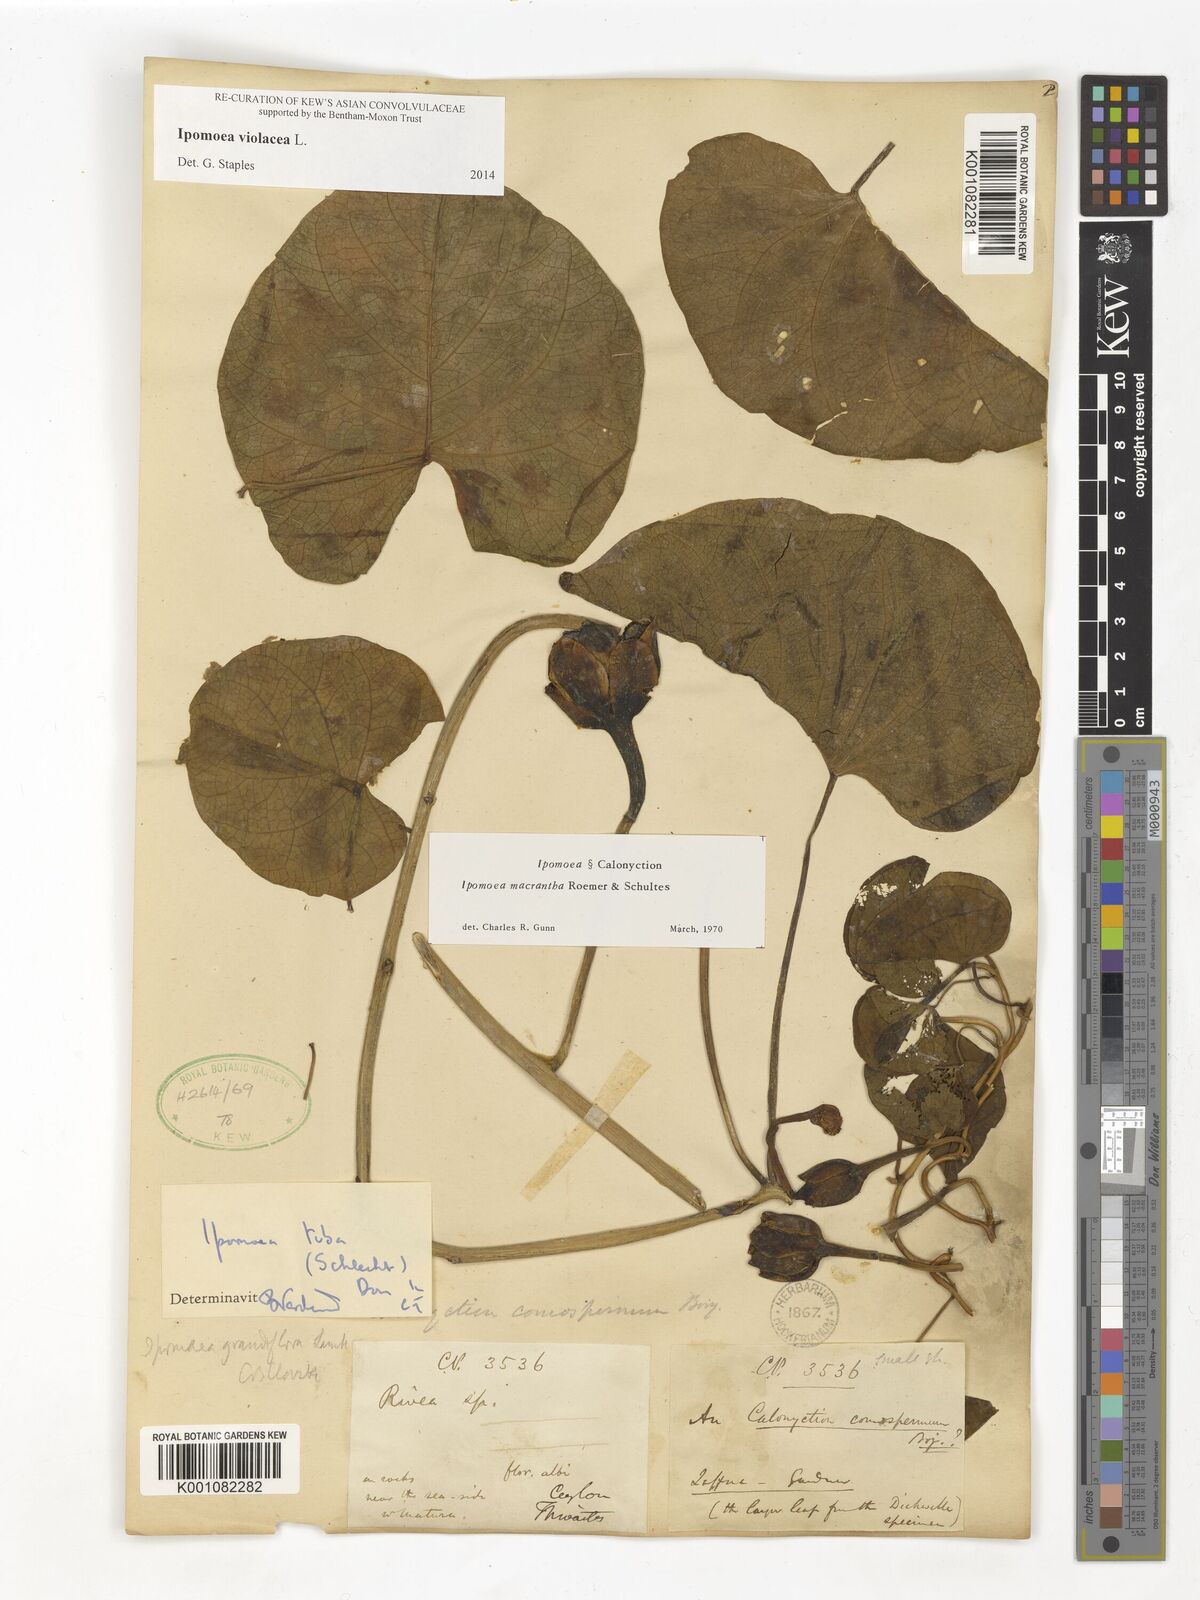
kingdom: Plantae
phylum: Tracheophyta
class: Magnoliopsida
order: Solanales
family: Convolvulaceae
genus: Ipomoea
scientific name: Ipomoea violacea
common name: Beach moonflower
